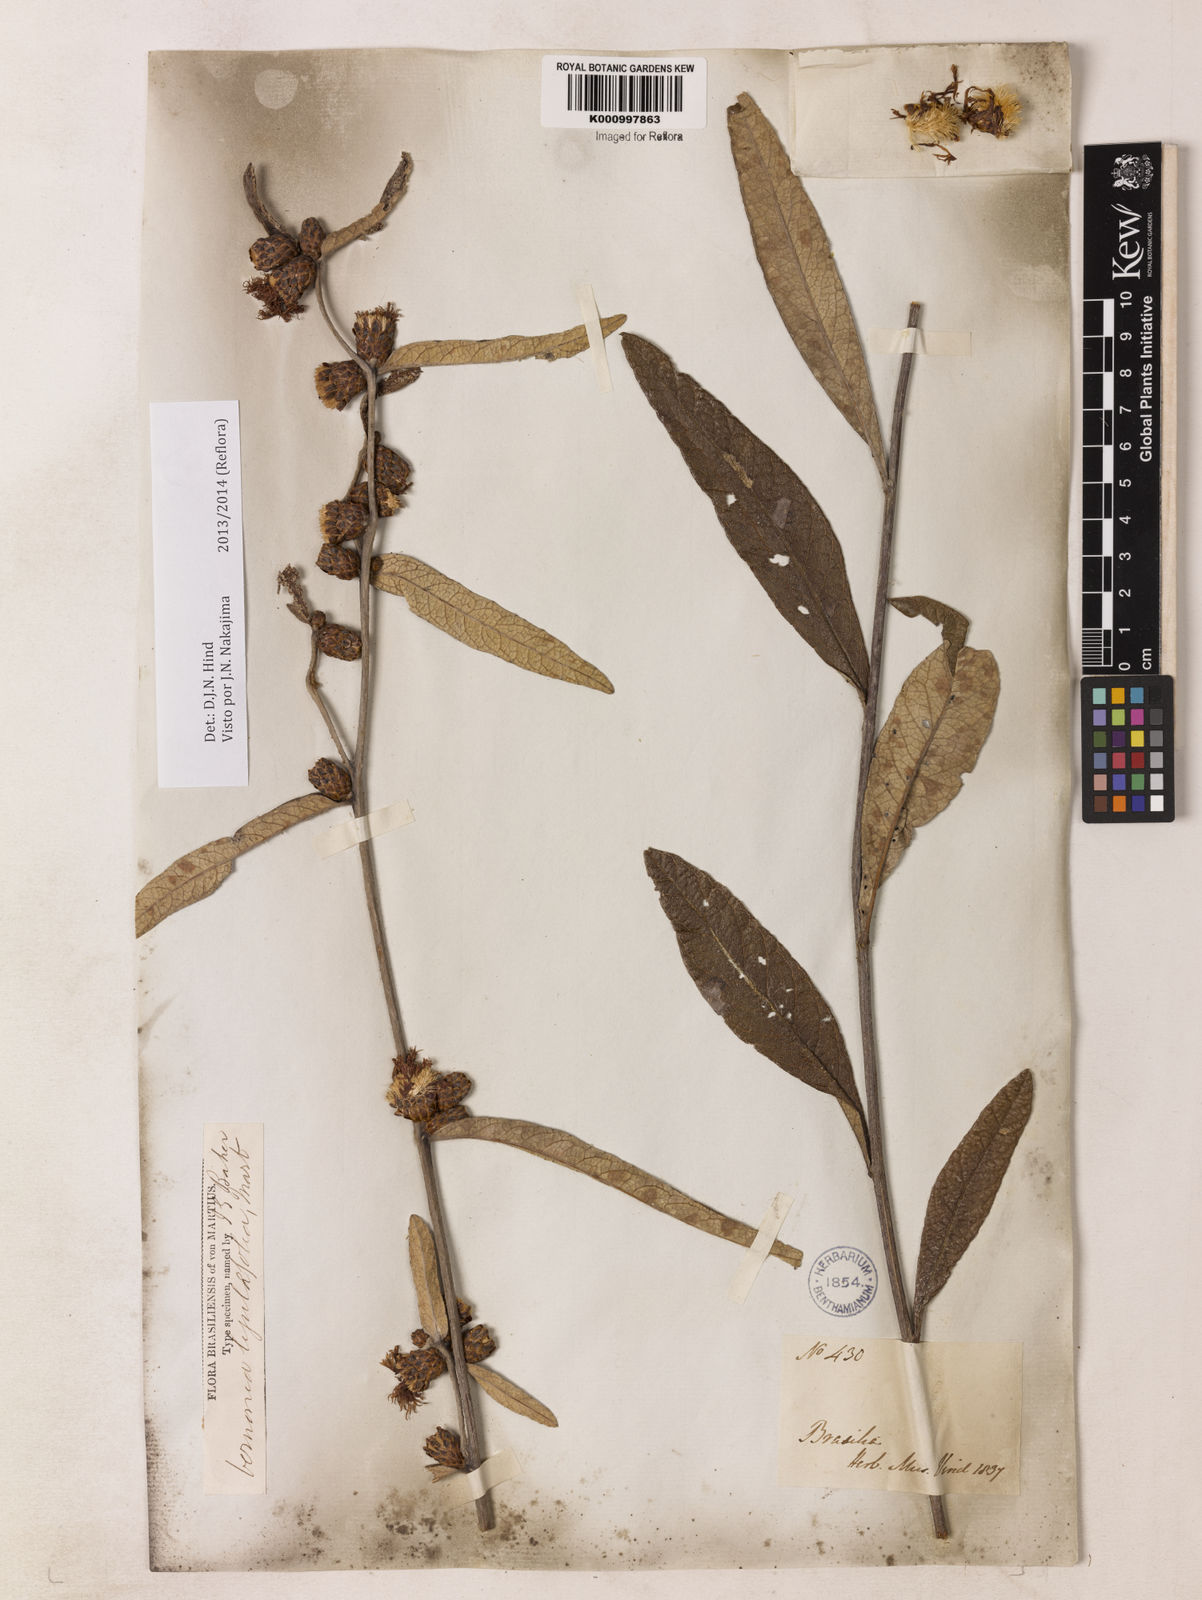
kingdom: Plantae
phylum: Tracheophyta
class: Magnoliopsida
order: Asterales
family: Asteraceae
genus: Lessingianthus
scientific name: Lessingianthus ligulifolius
